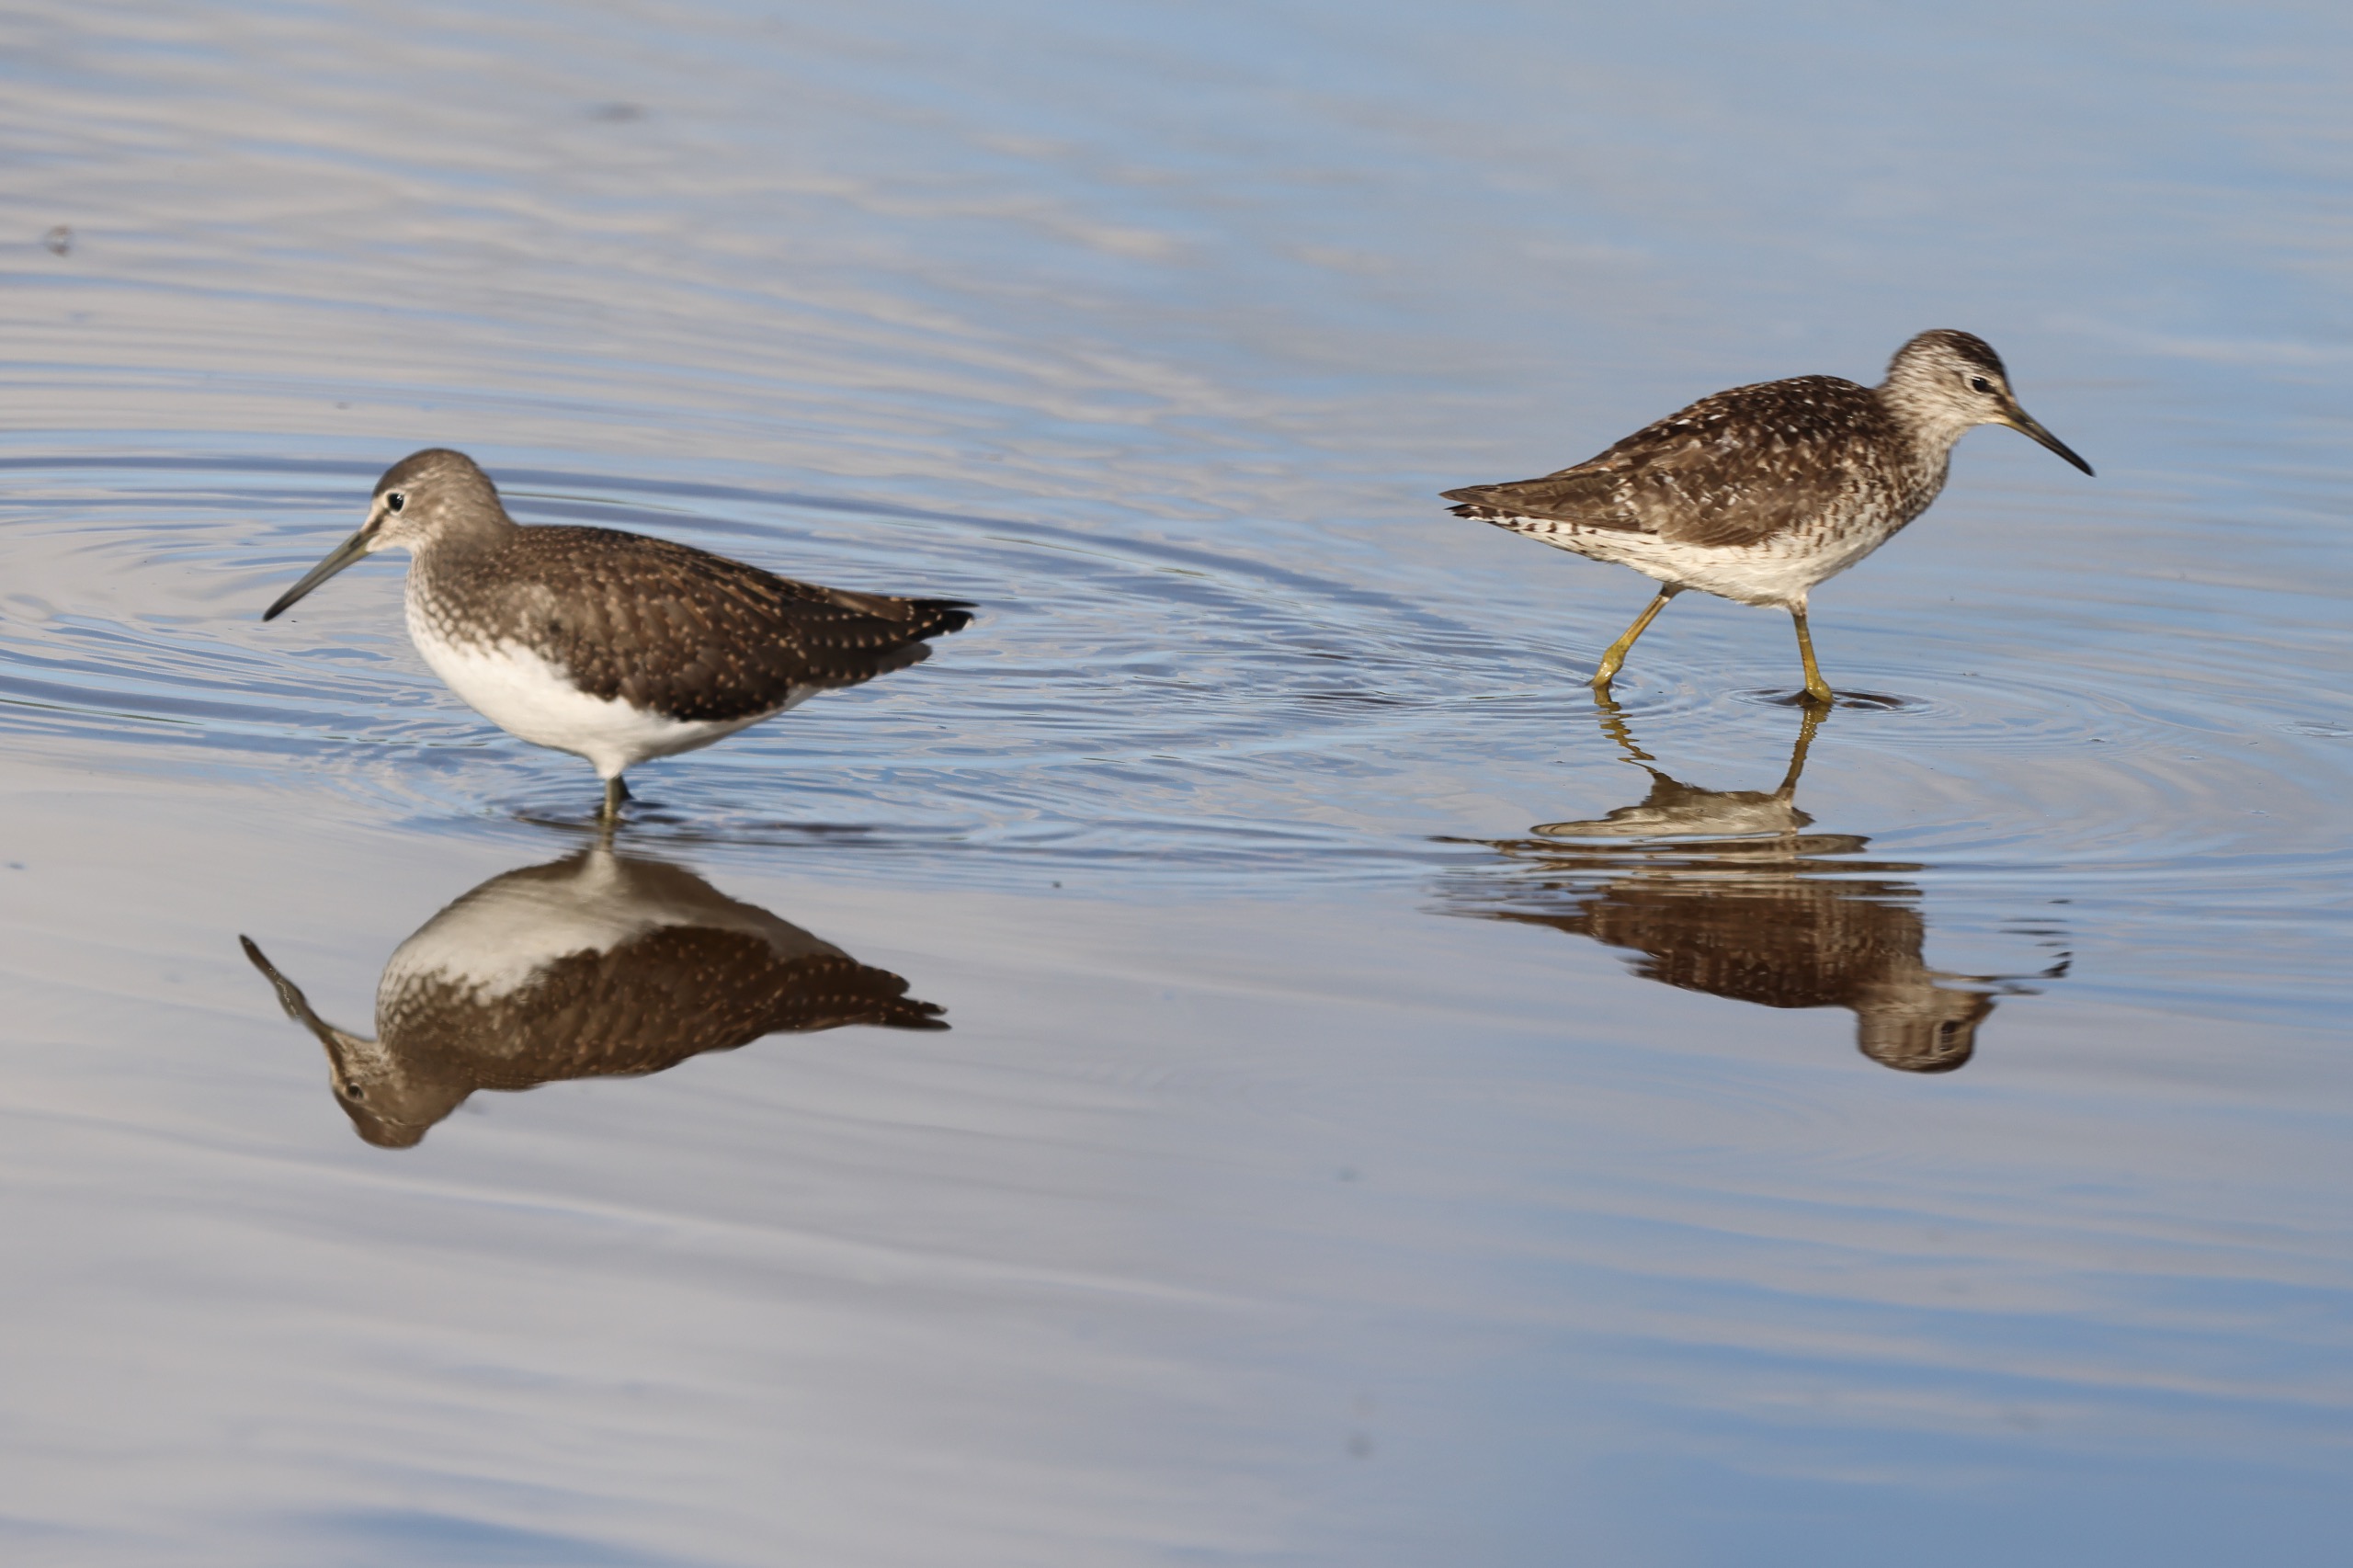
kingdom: Animalia
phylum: Chordata
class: Aves
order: Charadriiformes
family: Scolopacidae
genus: Tringa
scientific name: Tringa ochropus
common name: Svaleklire
